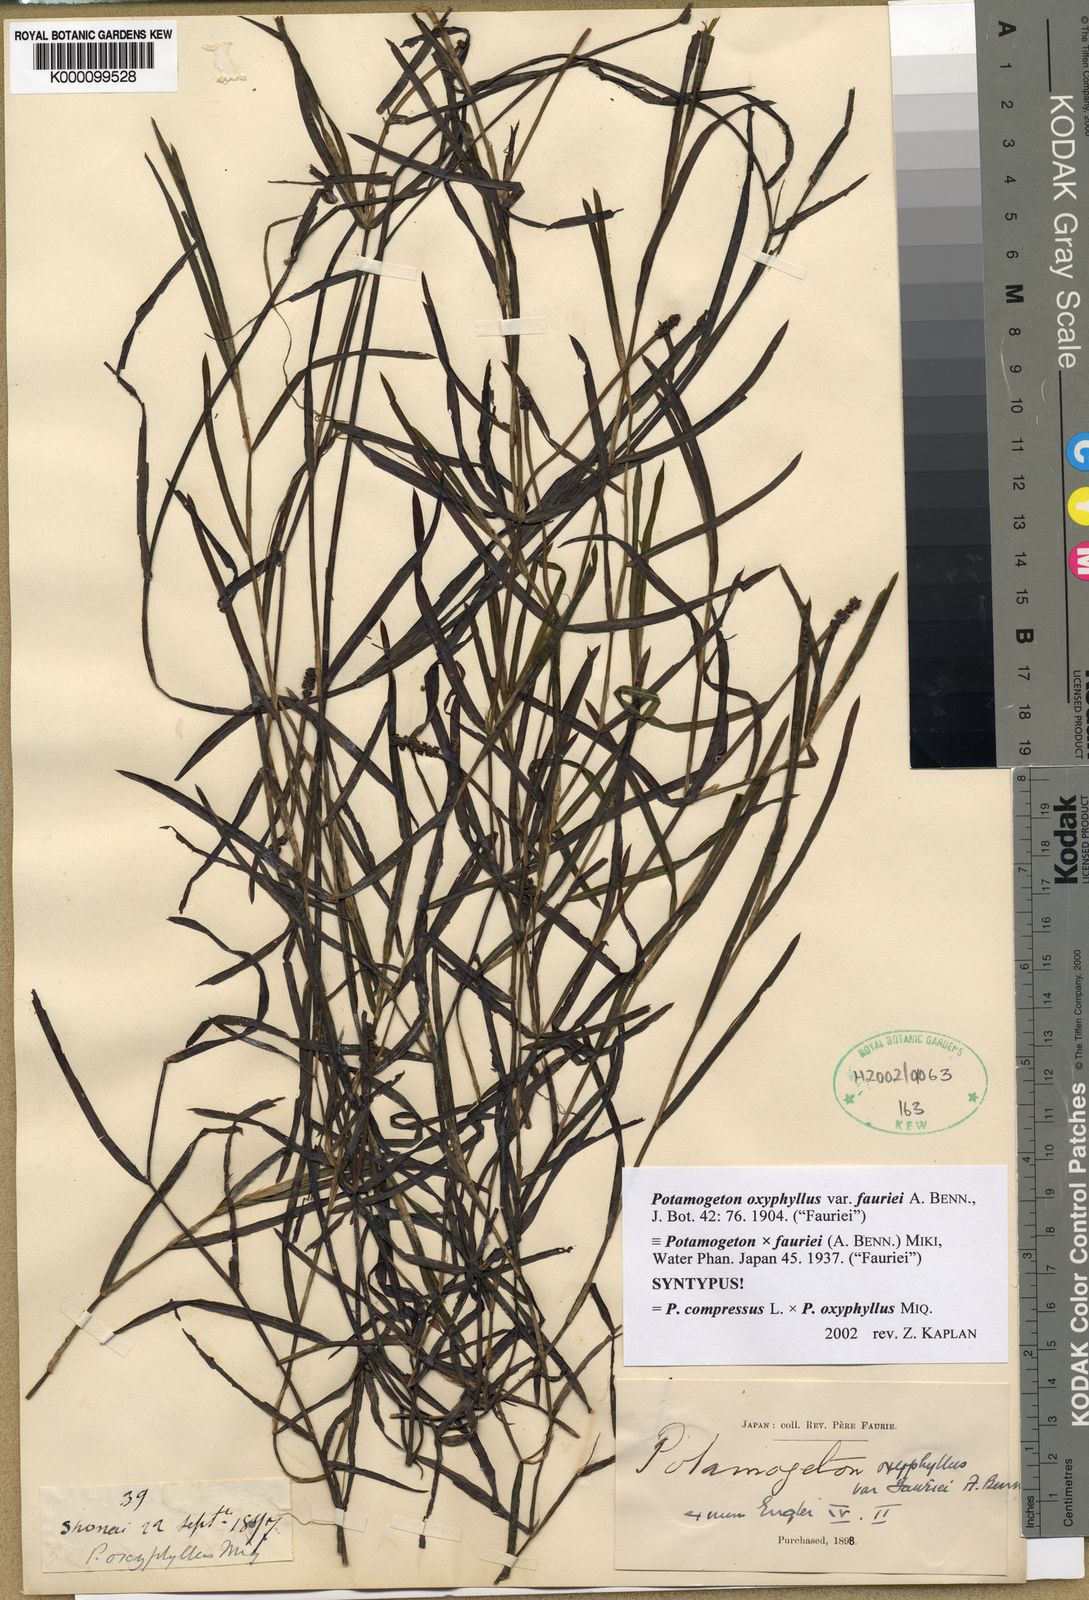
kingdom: Plantae
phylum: Tracheophyta
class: Liliopsida
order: Alismatales
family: Potamogetonaceae
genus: Potamogeton
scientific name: Potamogeton kamogawaensis
